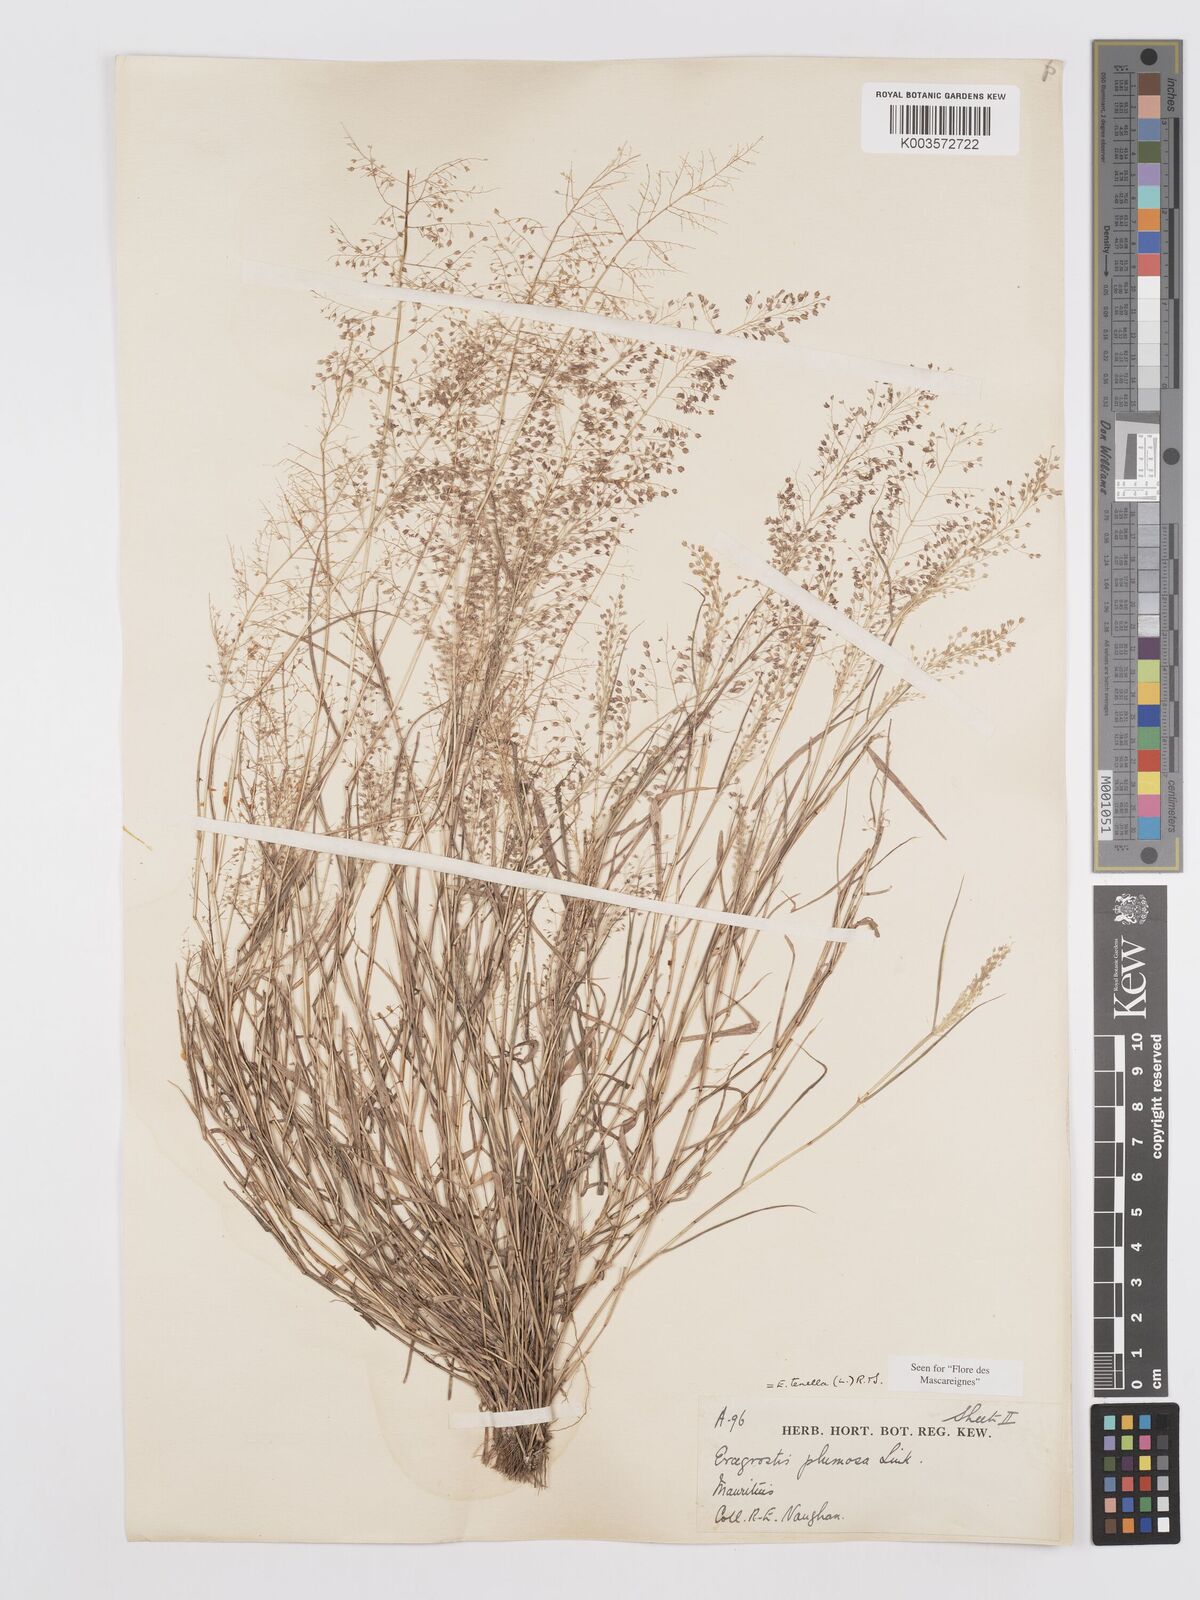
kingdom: Plantae
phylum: Tracheophyta
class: Liliopsida
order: Poales
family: Poaceae
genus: Eragrostis
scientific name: Eragrostis tenella
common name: Japanese lovegrass
